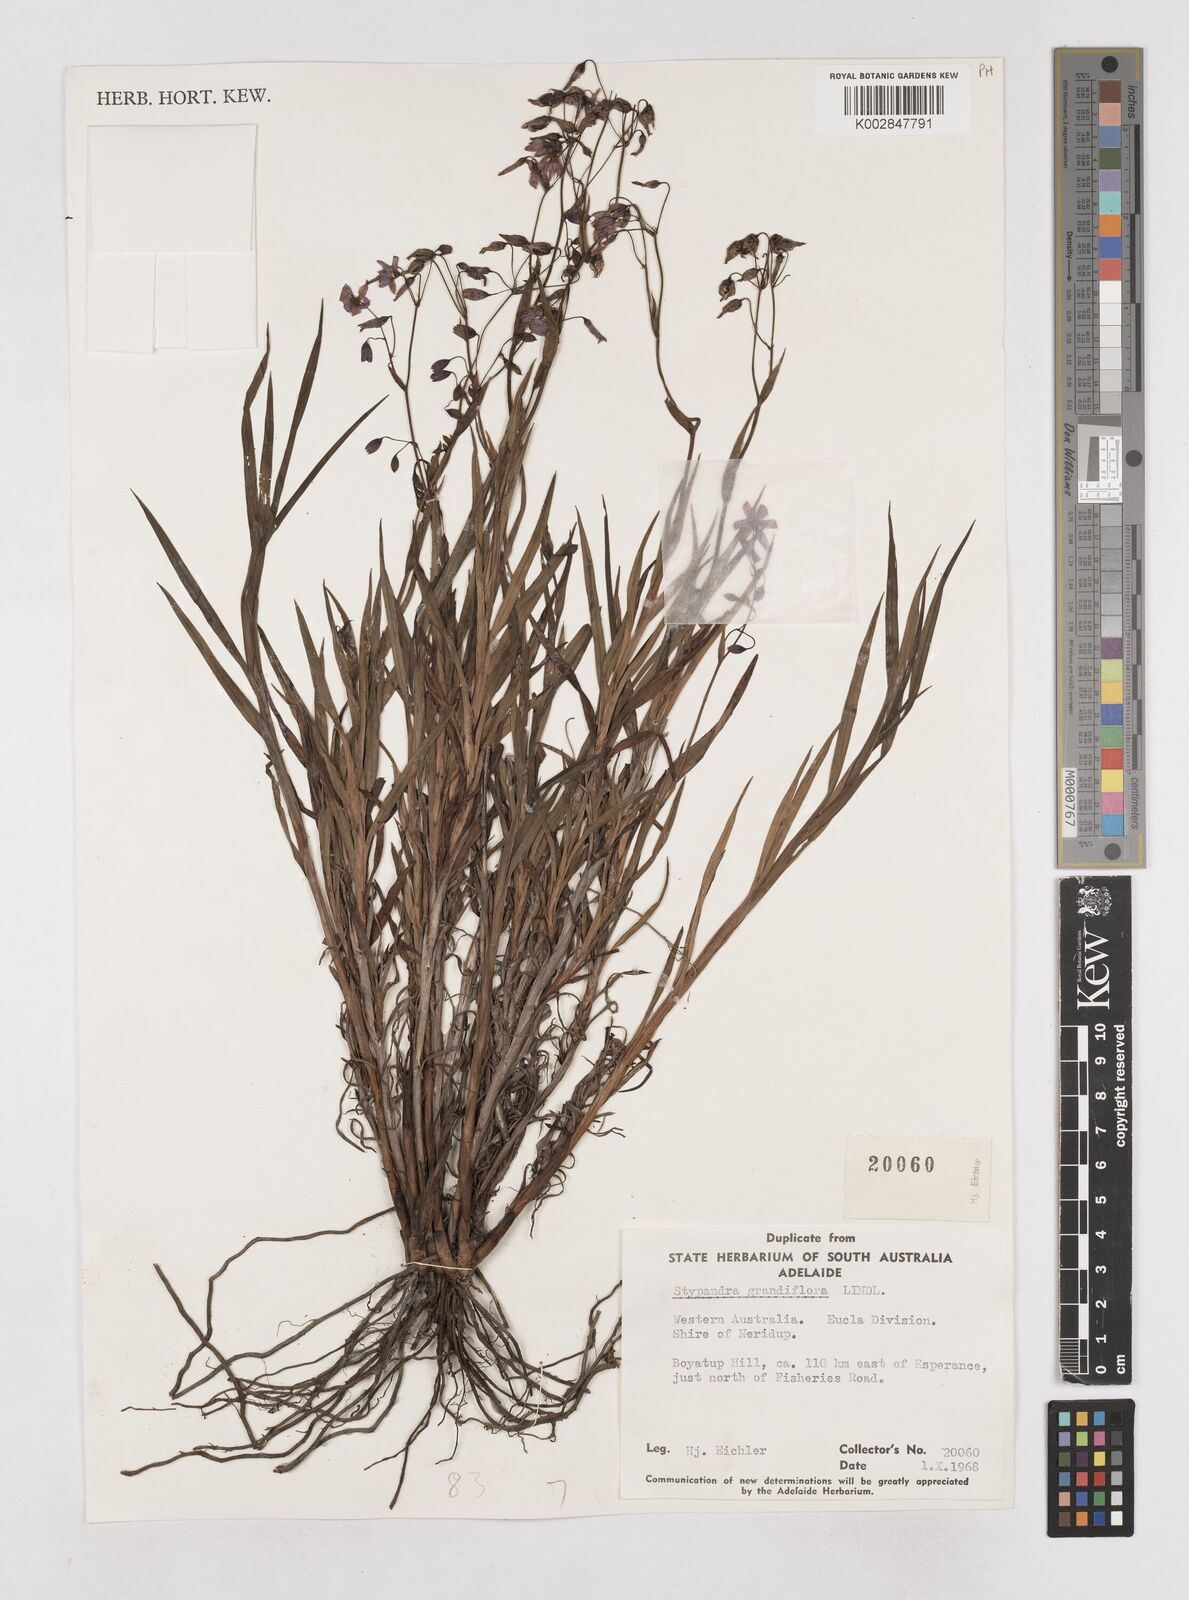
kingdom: Plantae
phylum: Tracheophyta
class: Liliopsida
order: Asparagales
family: Asphodelaceae
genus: Stypandra
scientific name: Stypandra glauca
